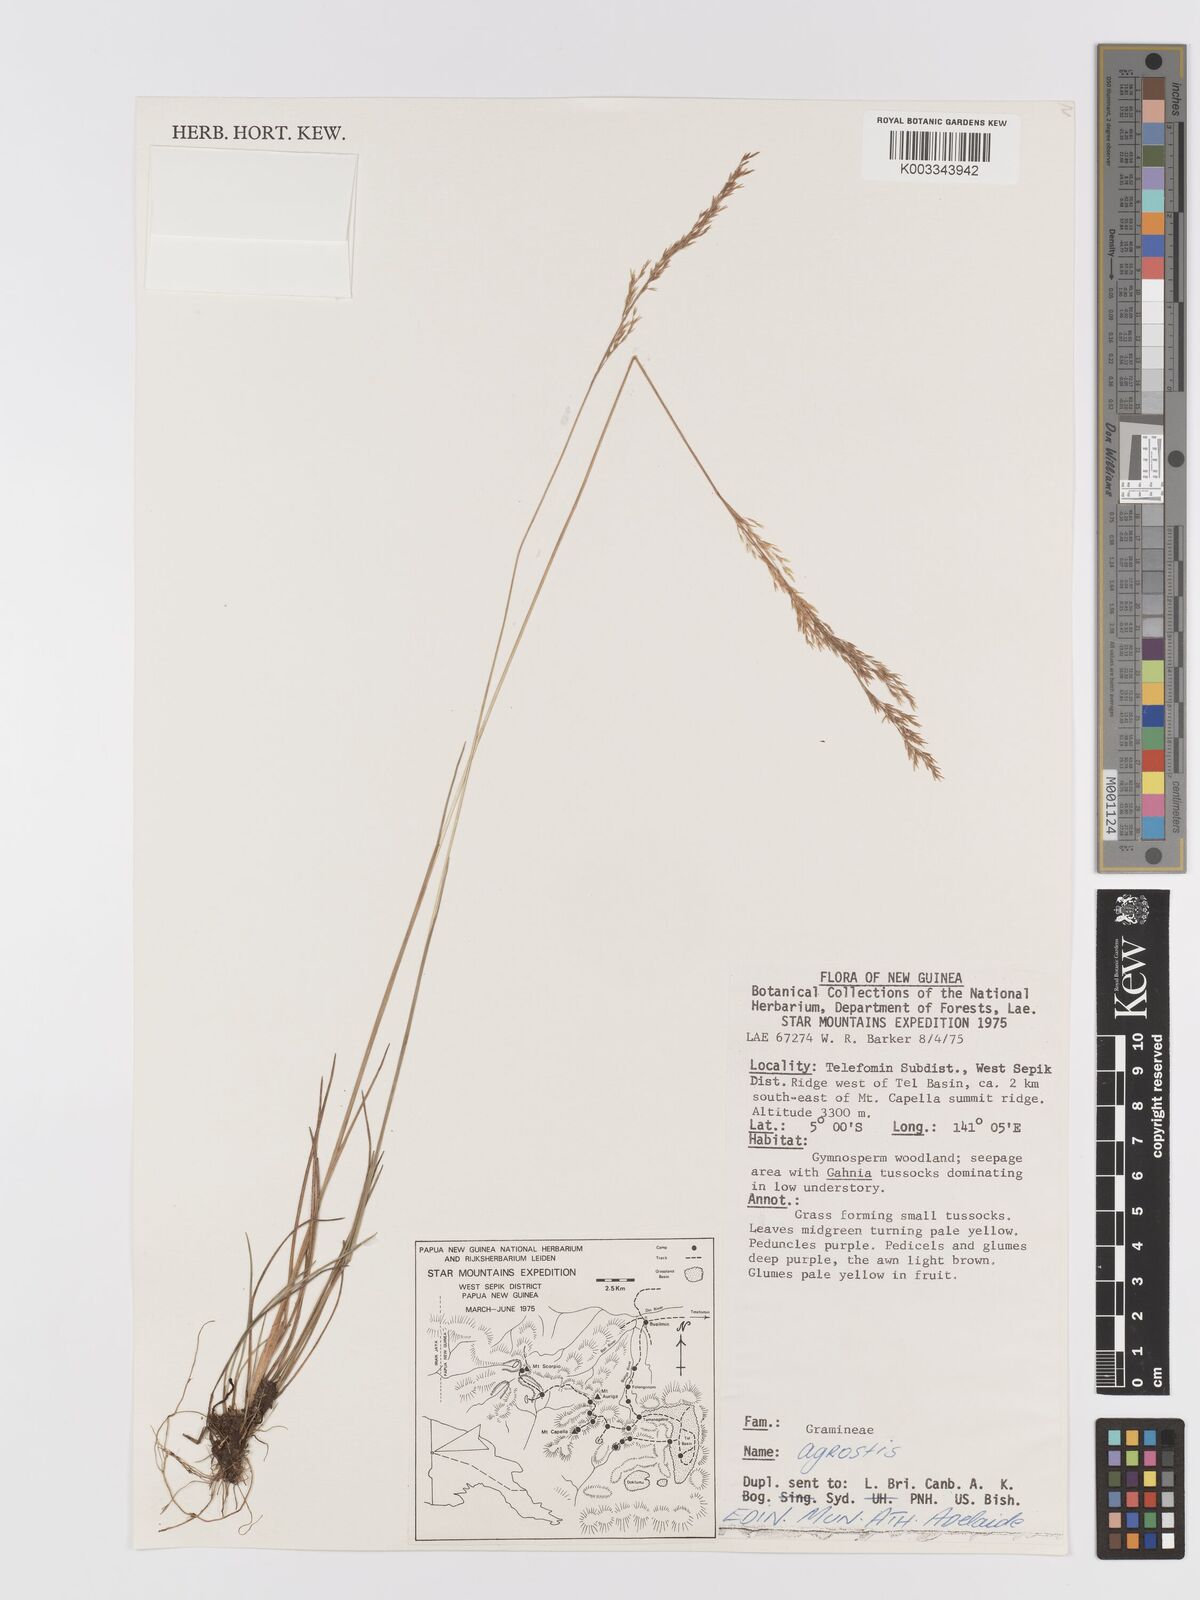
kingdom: Plantae
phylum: Tracheophyta
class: Liliopsida
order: Poales
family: Poaceae
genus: Agrostis
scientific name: Agrostis
